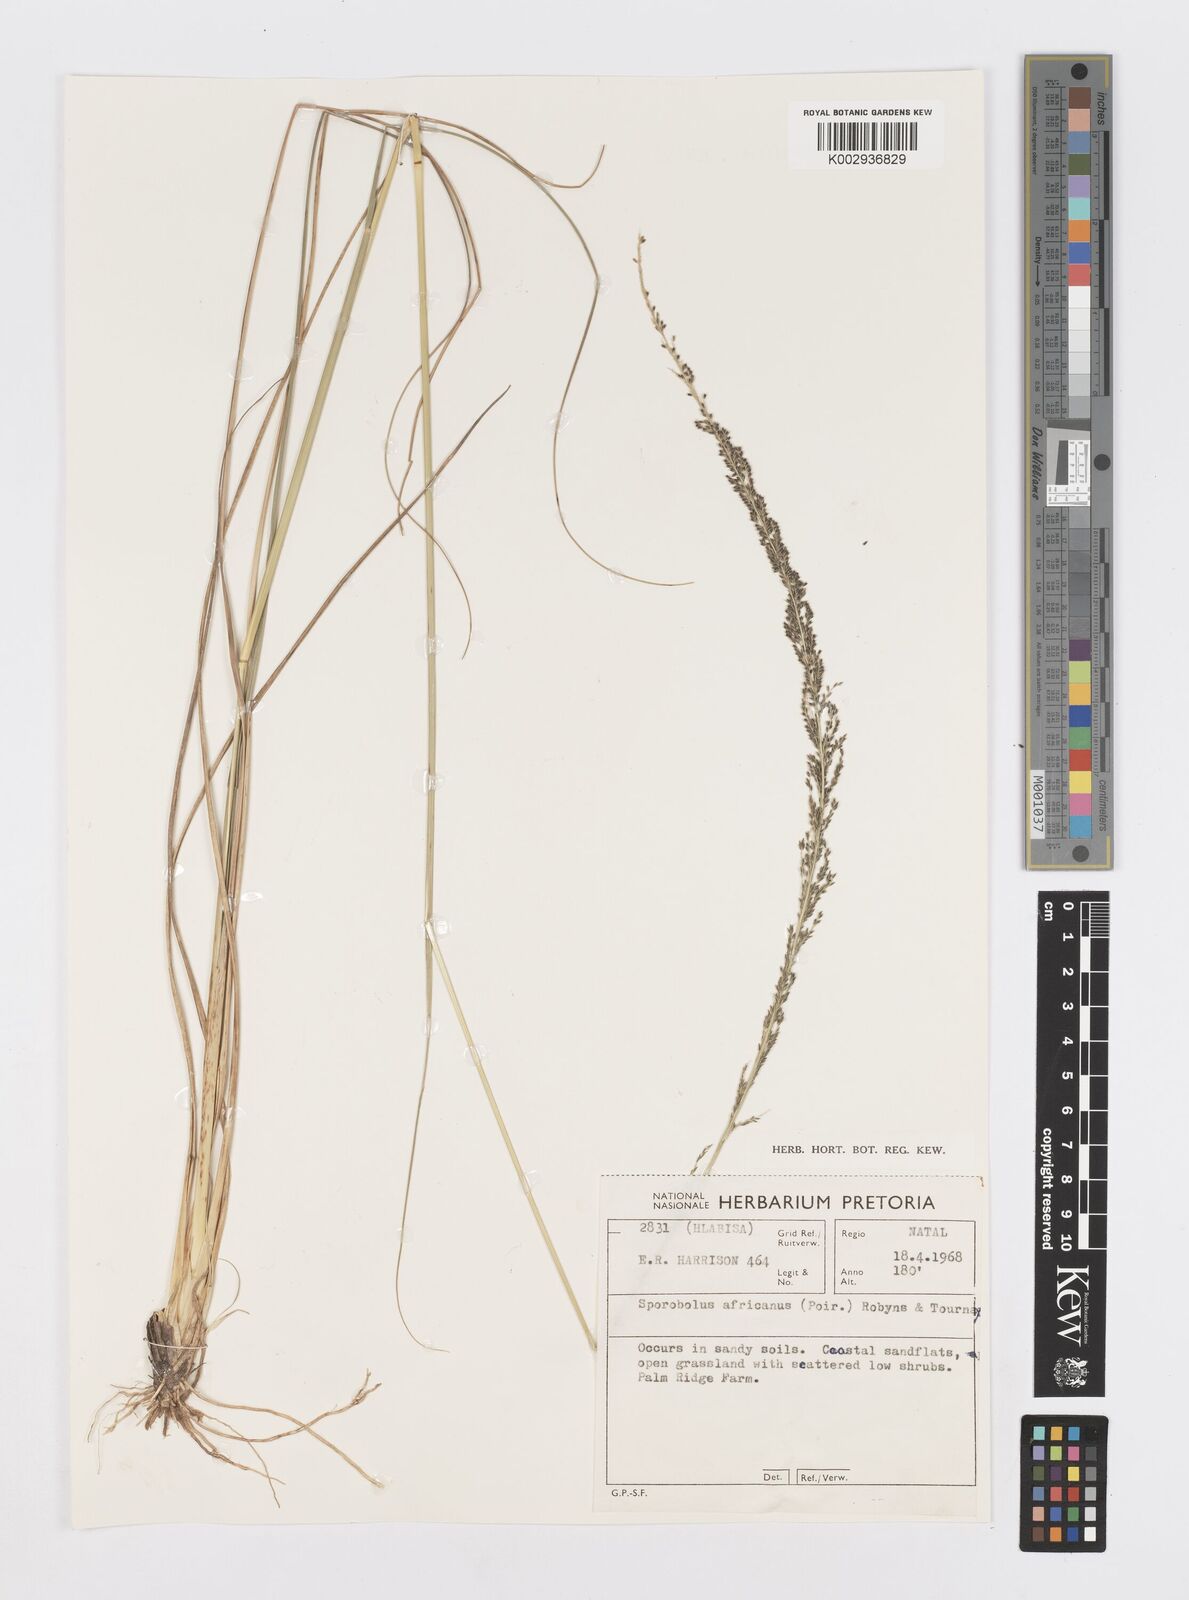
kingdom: Plantae
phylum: Tracheophyta
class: Liliopsida
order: Poales
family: Poaceae
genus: Sporobolus
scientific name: Sporobolus africanus
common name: African dropseed
